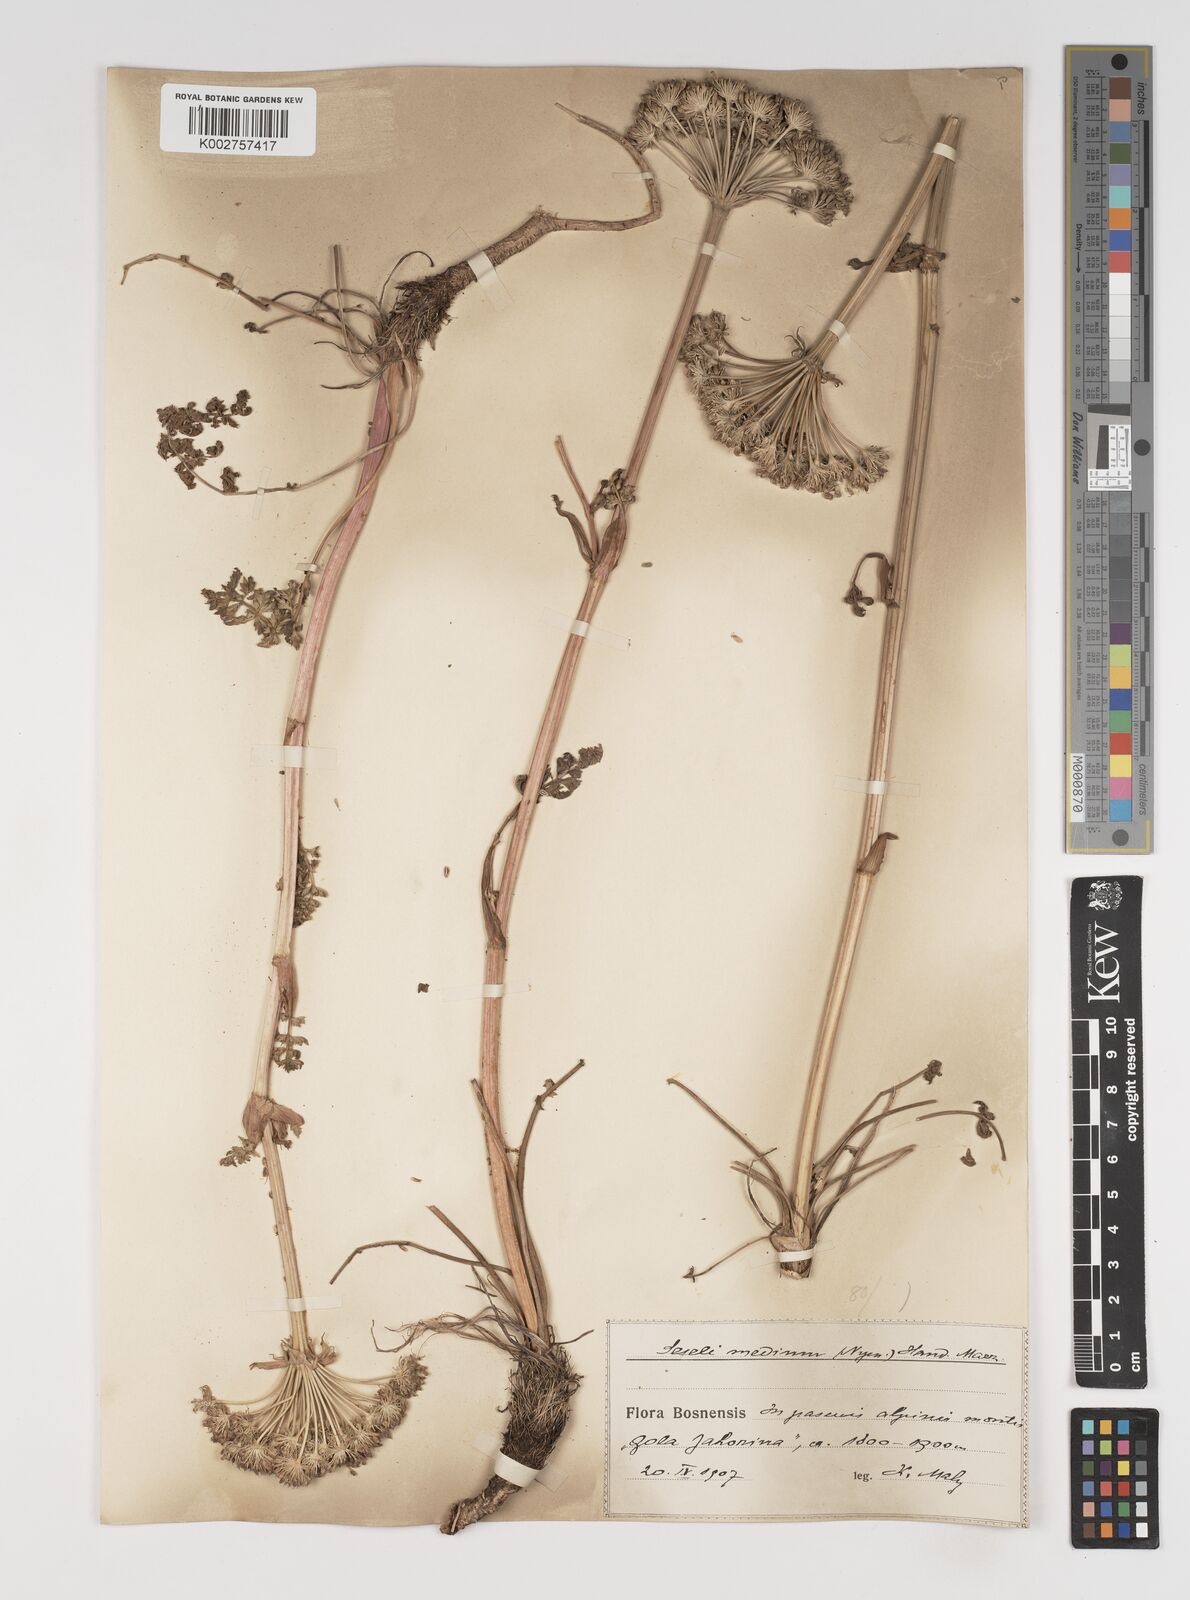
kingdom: Plantae
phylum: Tracheophyta
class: Magnoliopsida
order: Apiales
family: Apiaceae
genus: Seseli
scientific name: Seseli malyi
